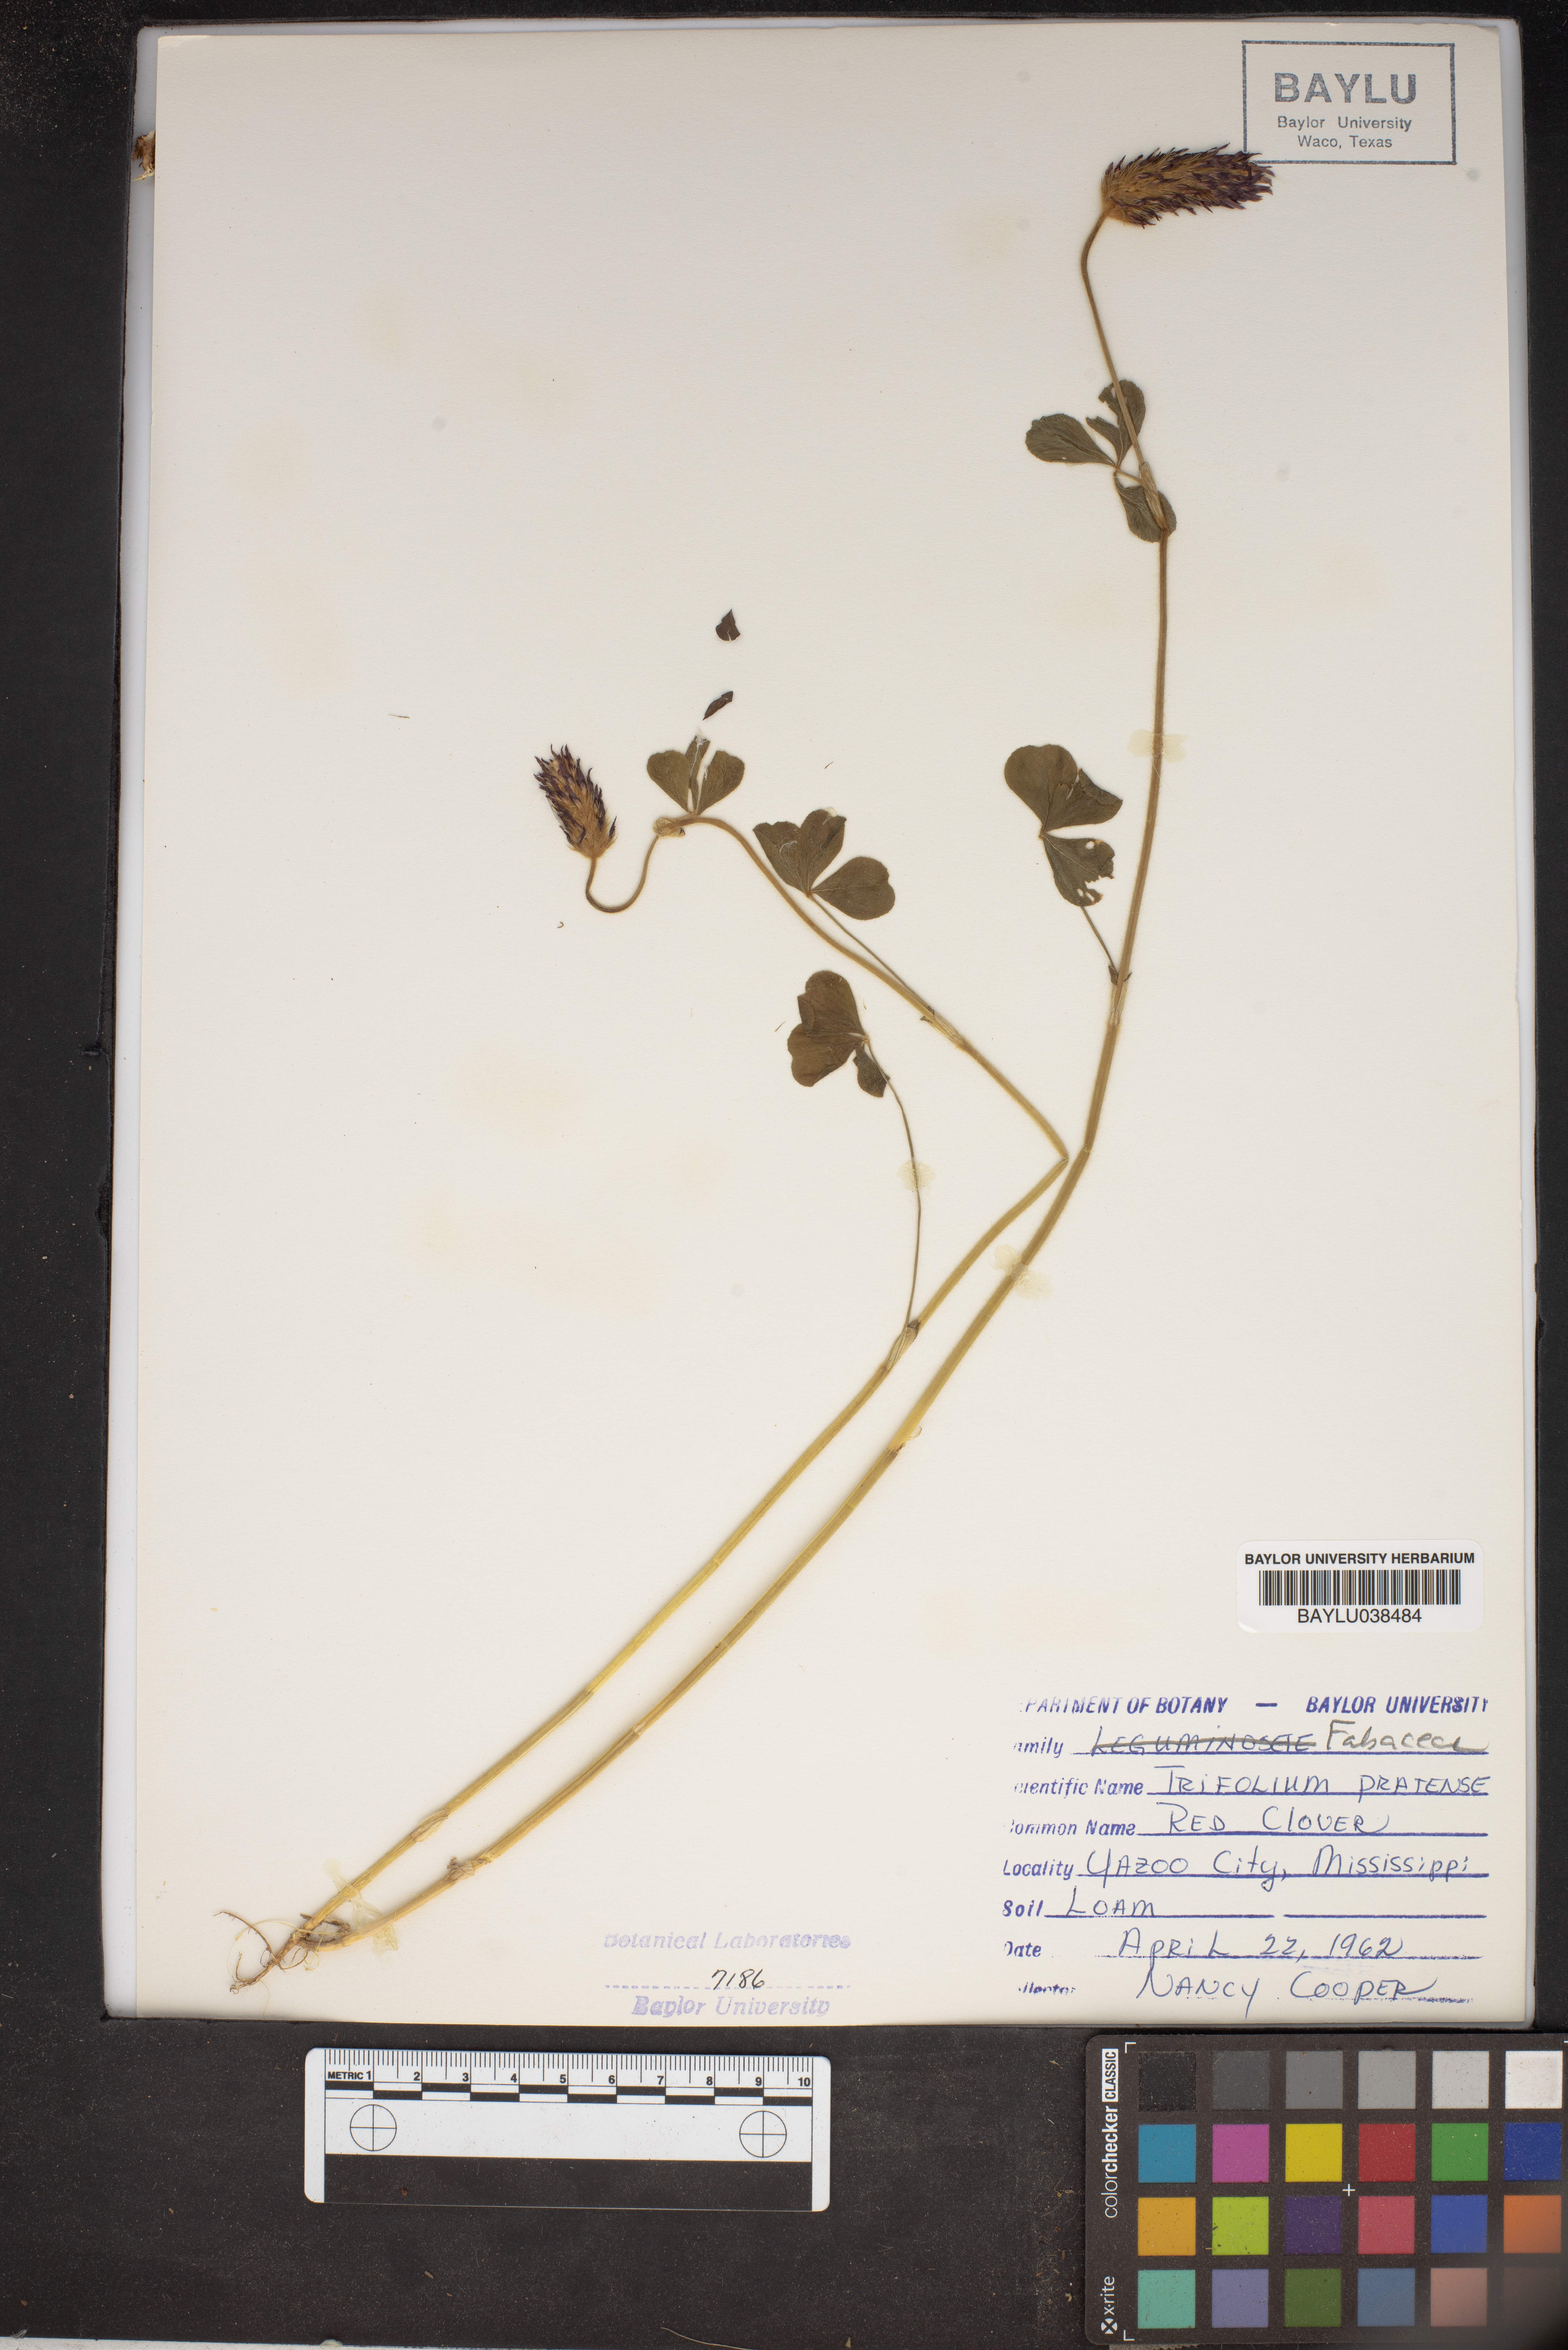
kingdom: Plantae
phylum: Tracheophyta
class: Magnoliopsida
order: Fabales
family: Fabaceae
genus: Trifolium
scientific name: Trifolium pratense
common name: Red clover
